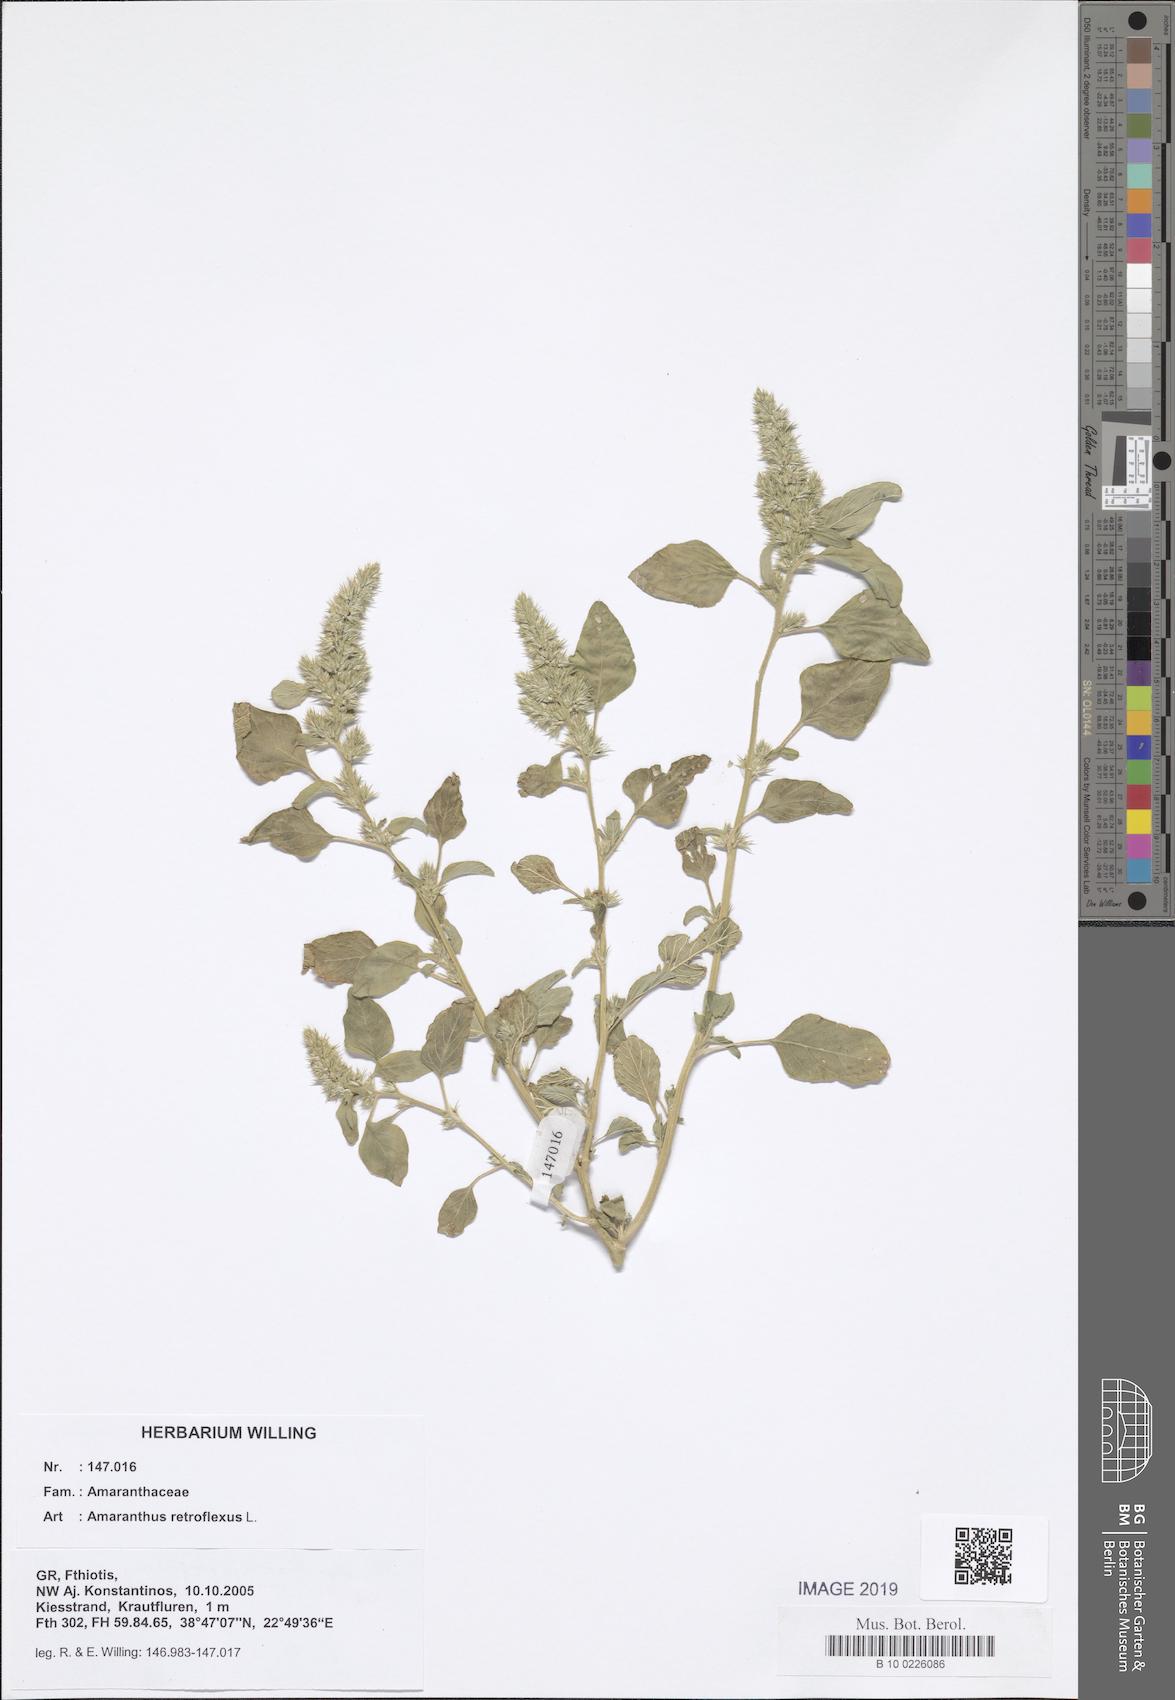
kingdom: Plantae
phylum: Tracheophyta
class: Magnoliopsida
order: Caryophyllales
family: Amaranthaceae
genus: Amaranthus
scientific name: Amaranthus retroflexus
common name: Redroot amaranth
